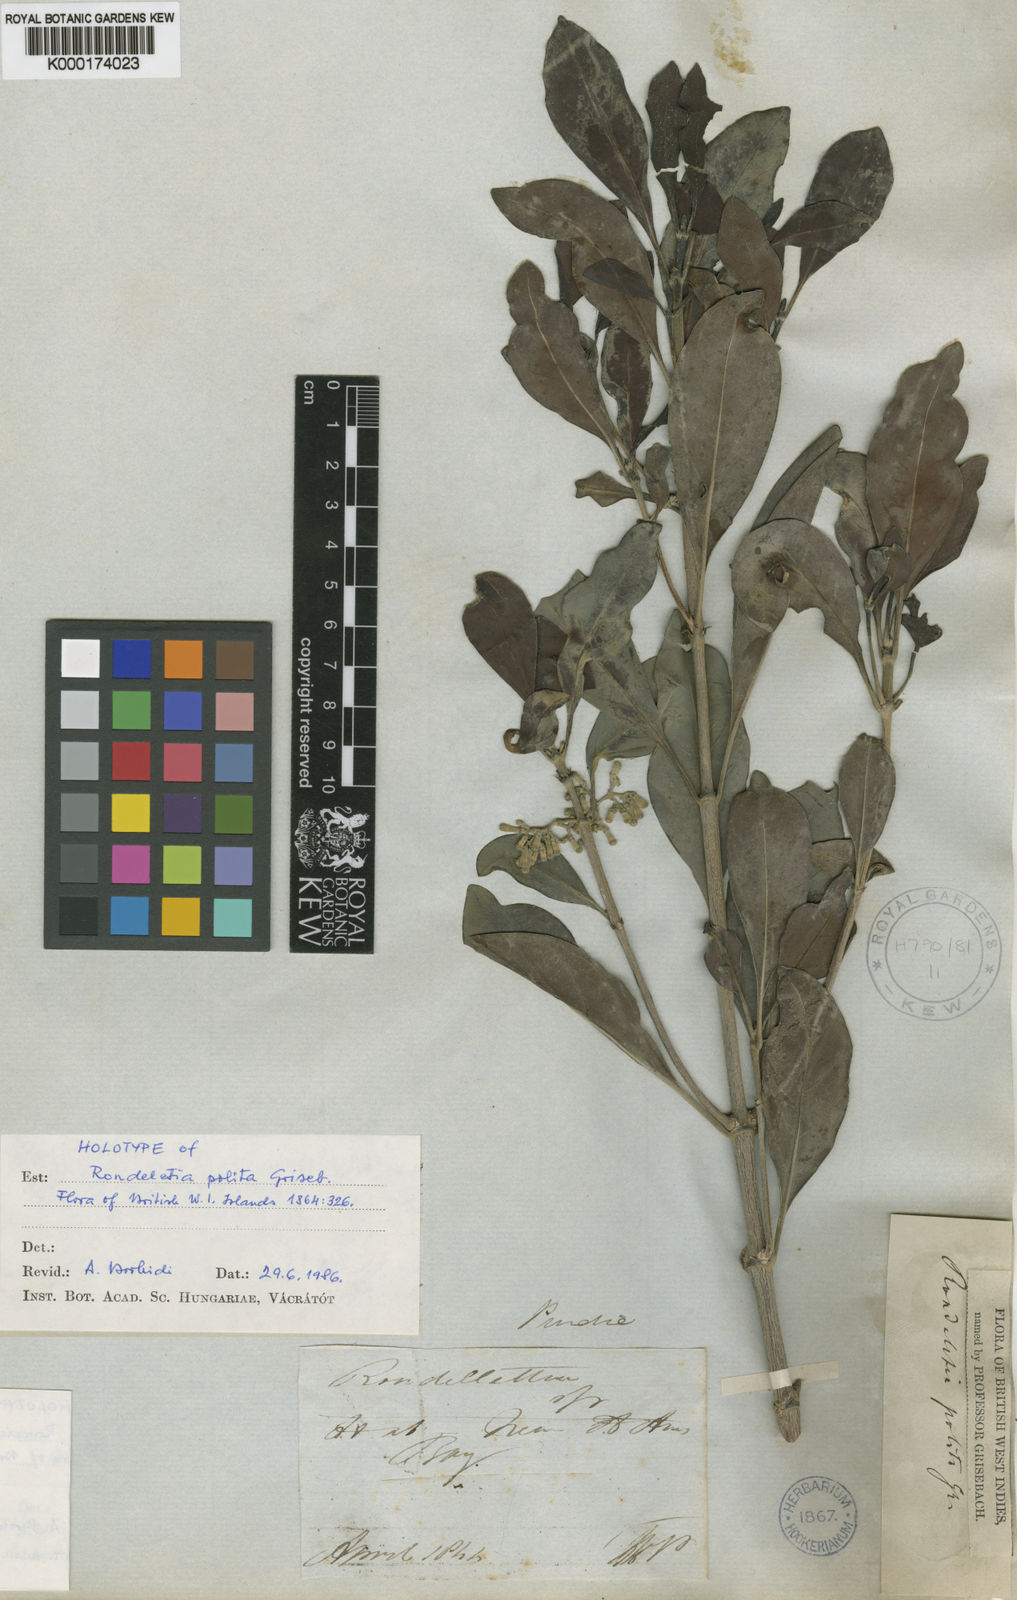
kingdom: Plantae
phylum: Tracheophyta
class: Magnoliopsida
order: Gentianales
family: Rubiaceae
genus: Rondeletia
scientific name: Rondeletia polita
